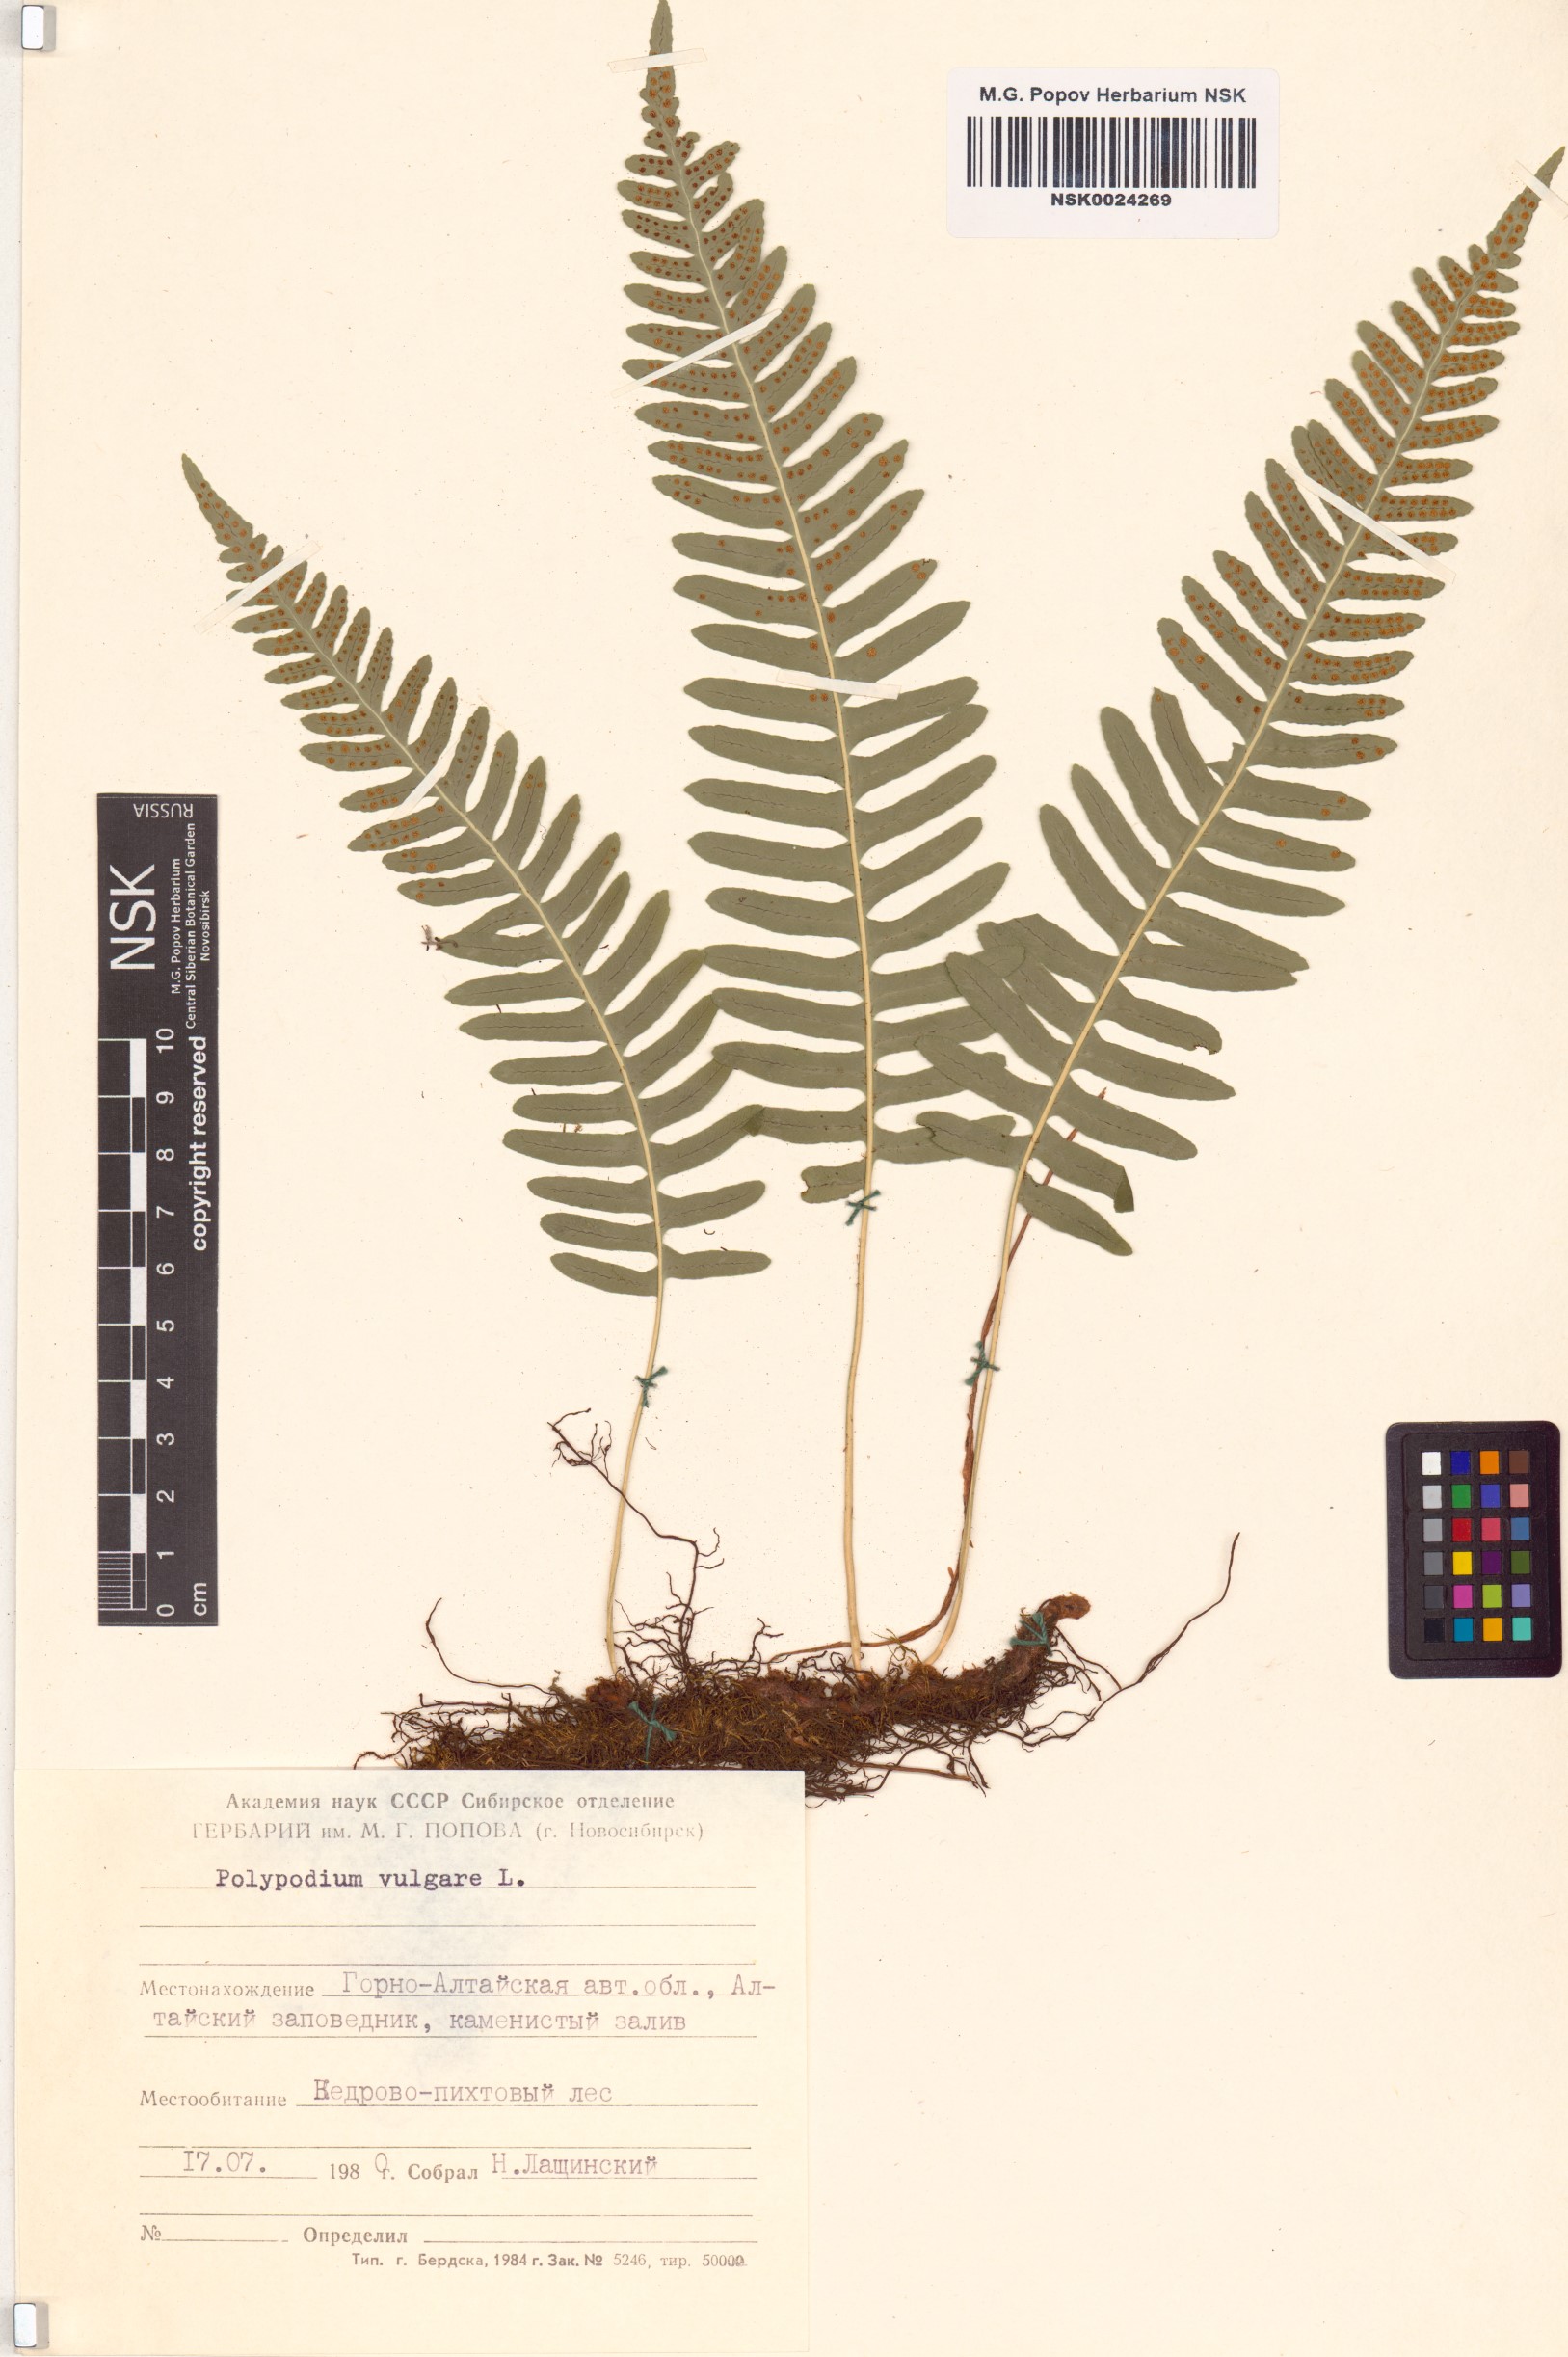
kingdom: Plantae
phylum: Tracheophyta
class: Polypodiopsida
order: Polypodiales
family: Polypodiaceae
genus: Polypodium
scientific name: Polypodium vulgare
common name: Common polypody
